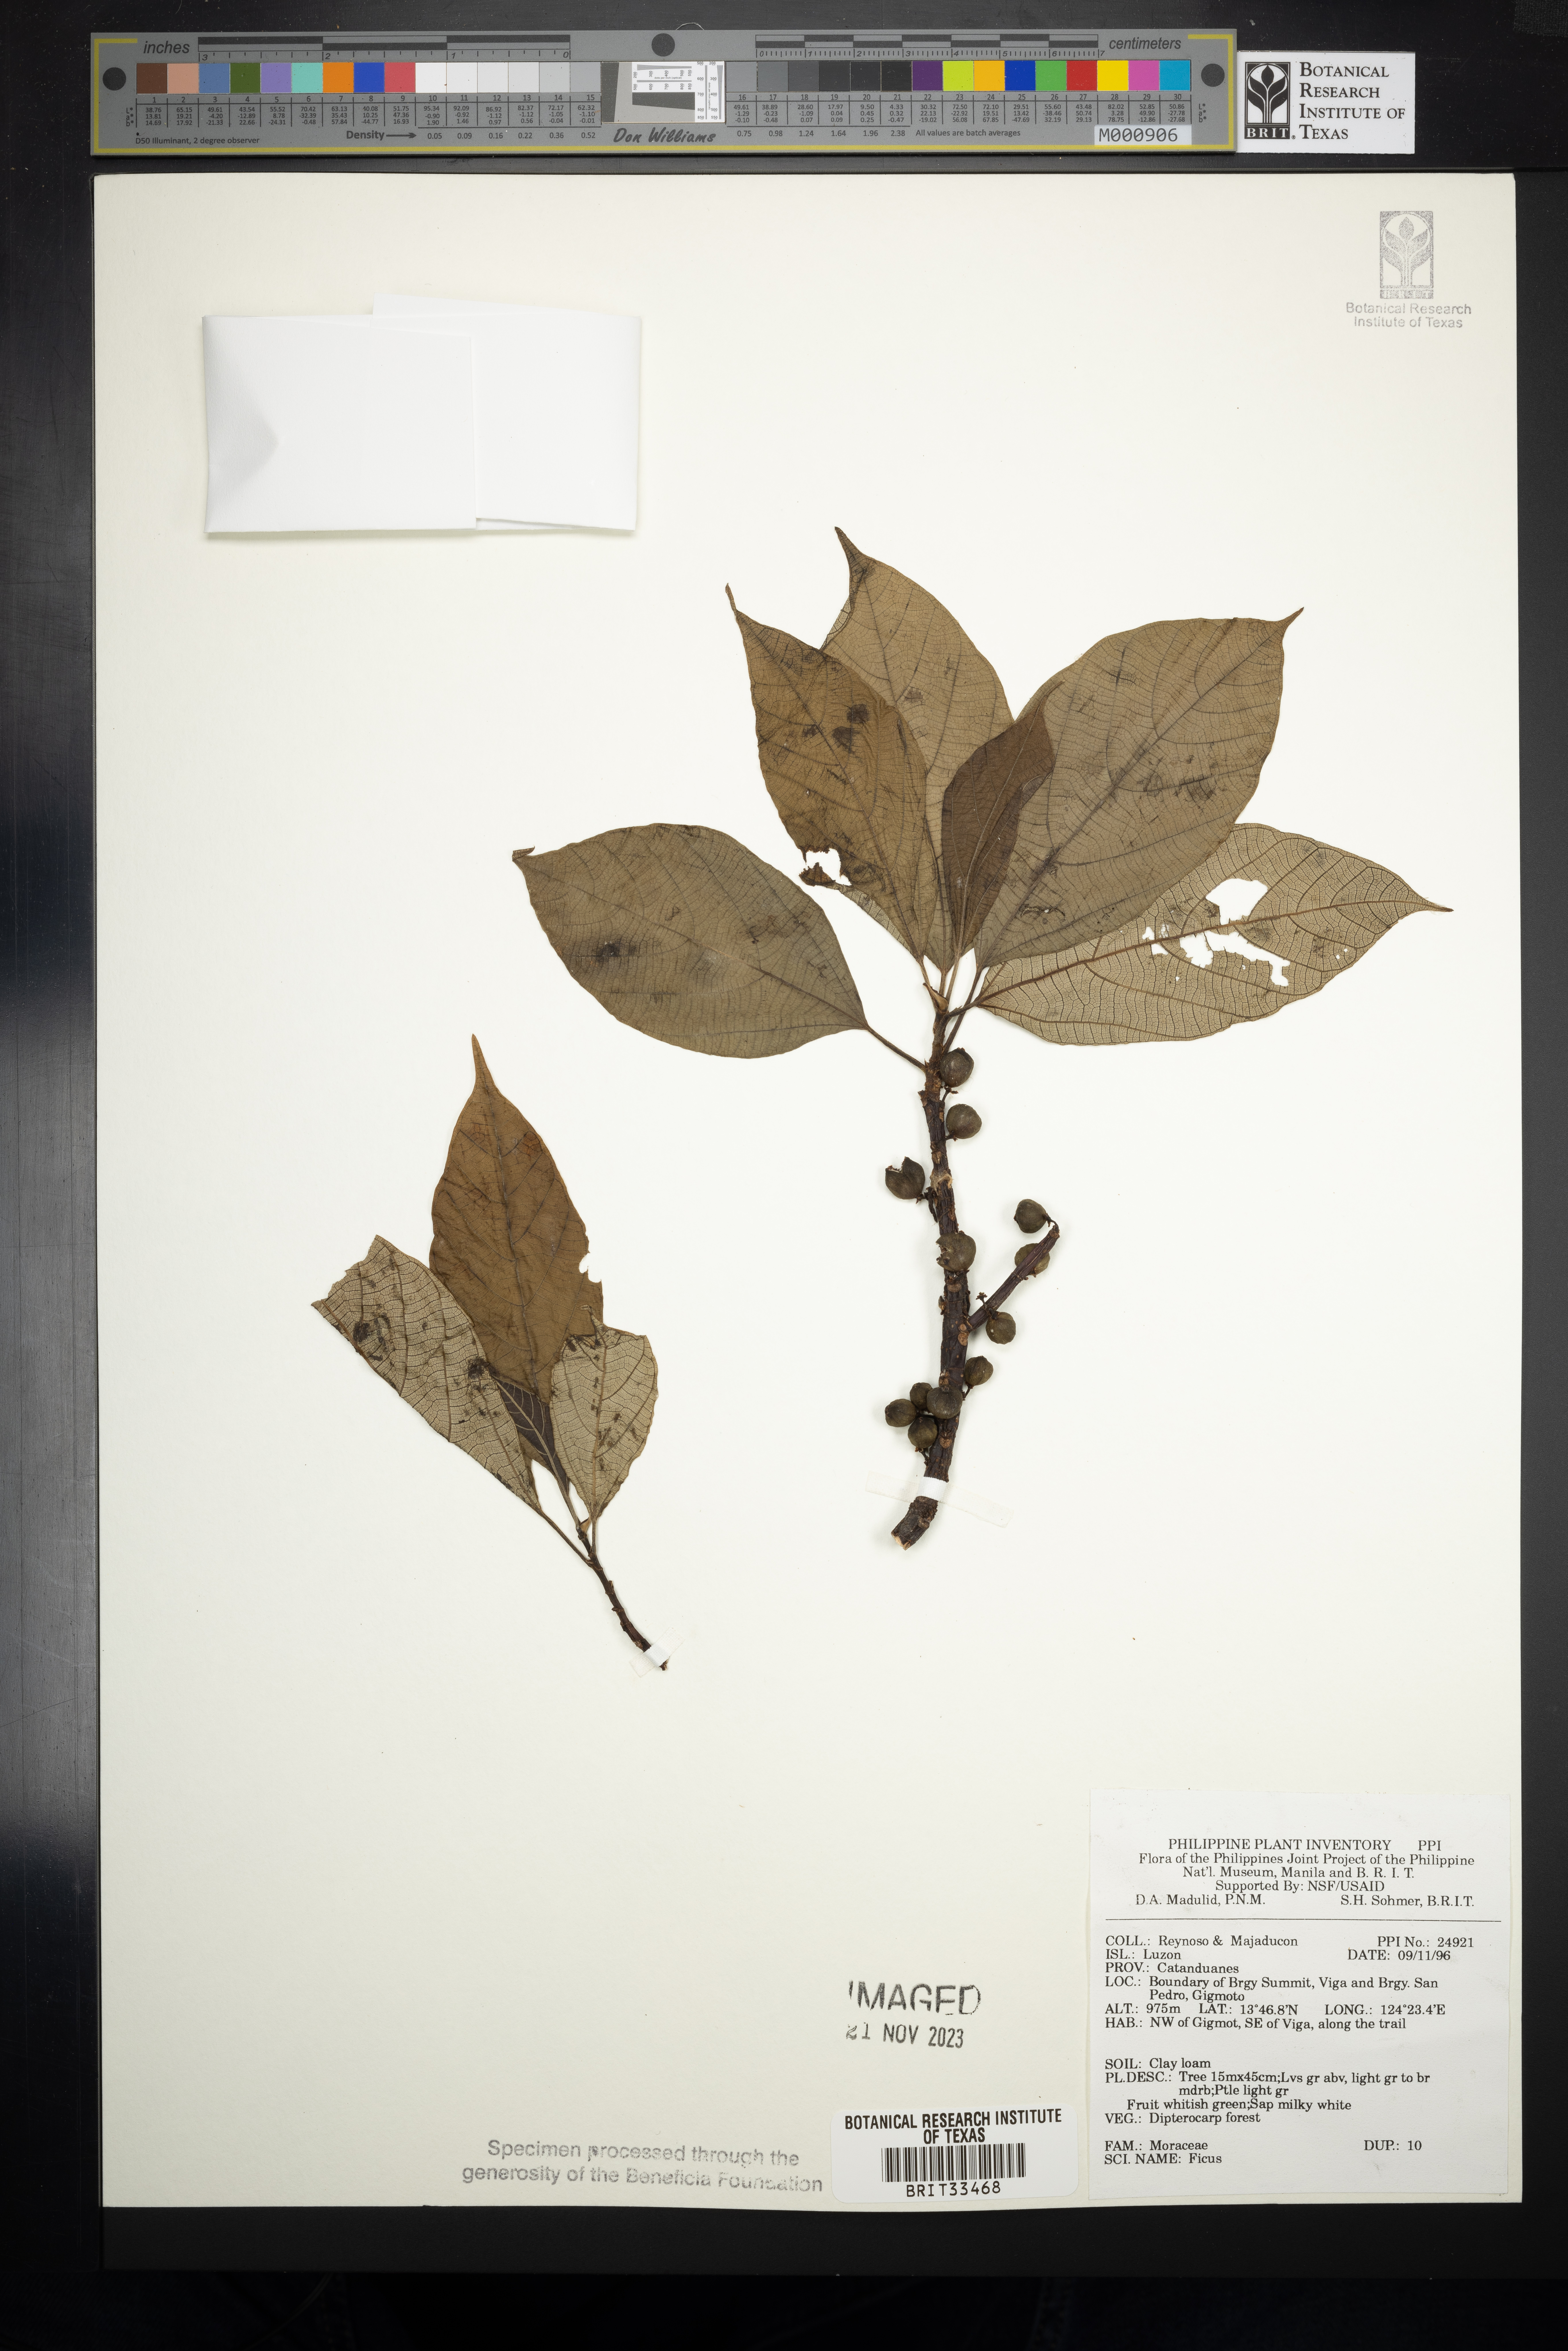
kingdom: Plantae
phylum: Tracheophyta
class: Magnoliopsida
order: Rosales
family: Moraceae
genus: Ficus
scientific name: Ficus
